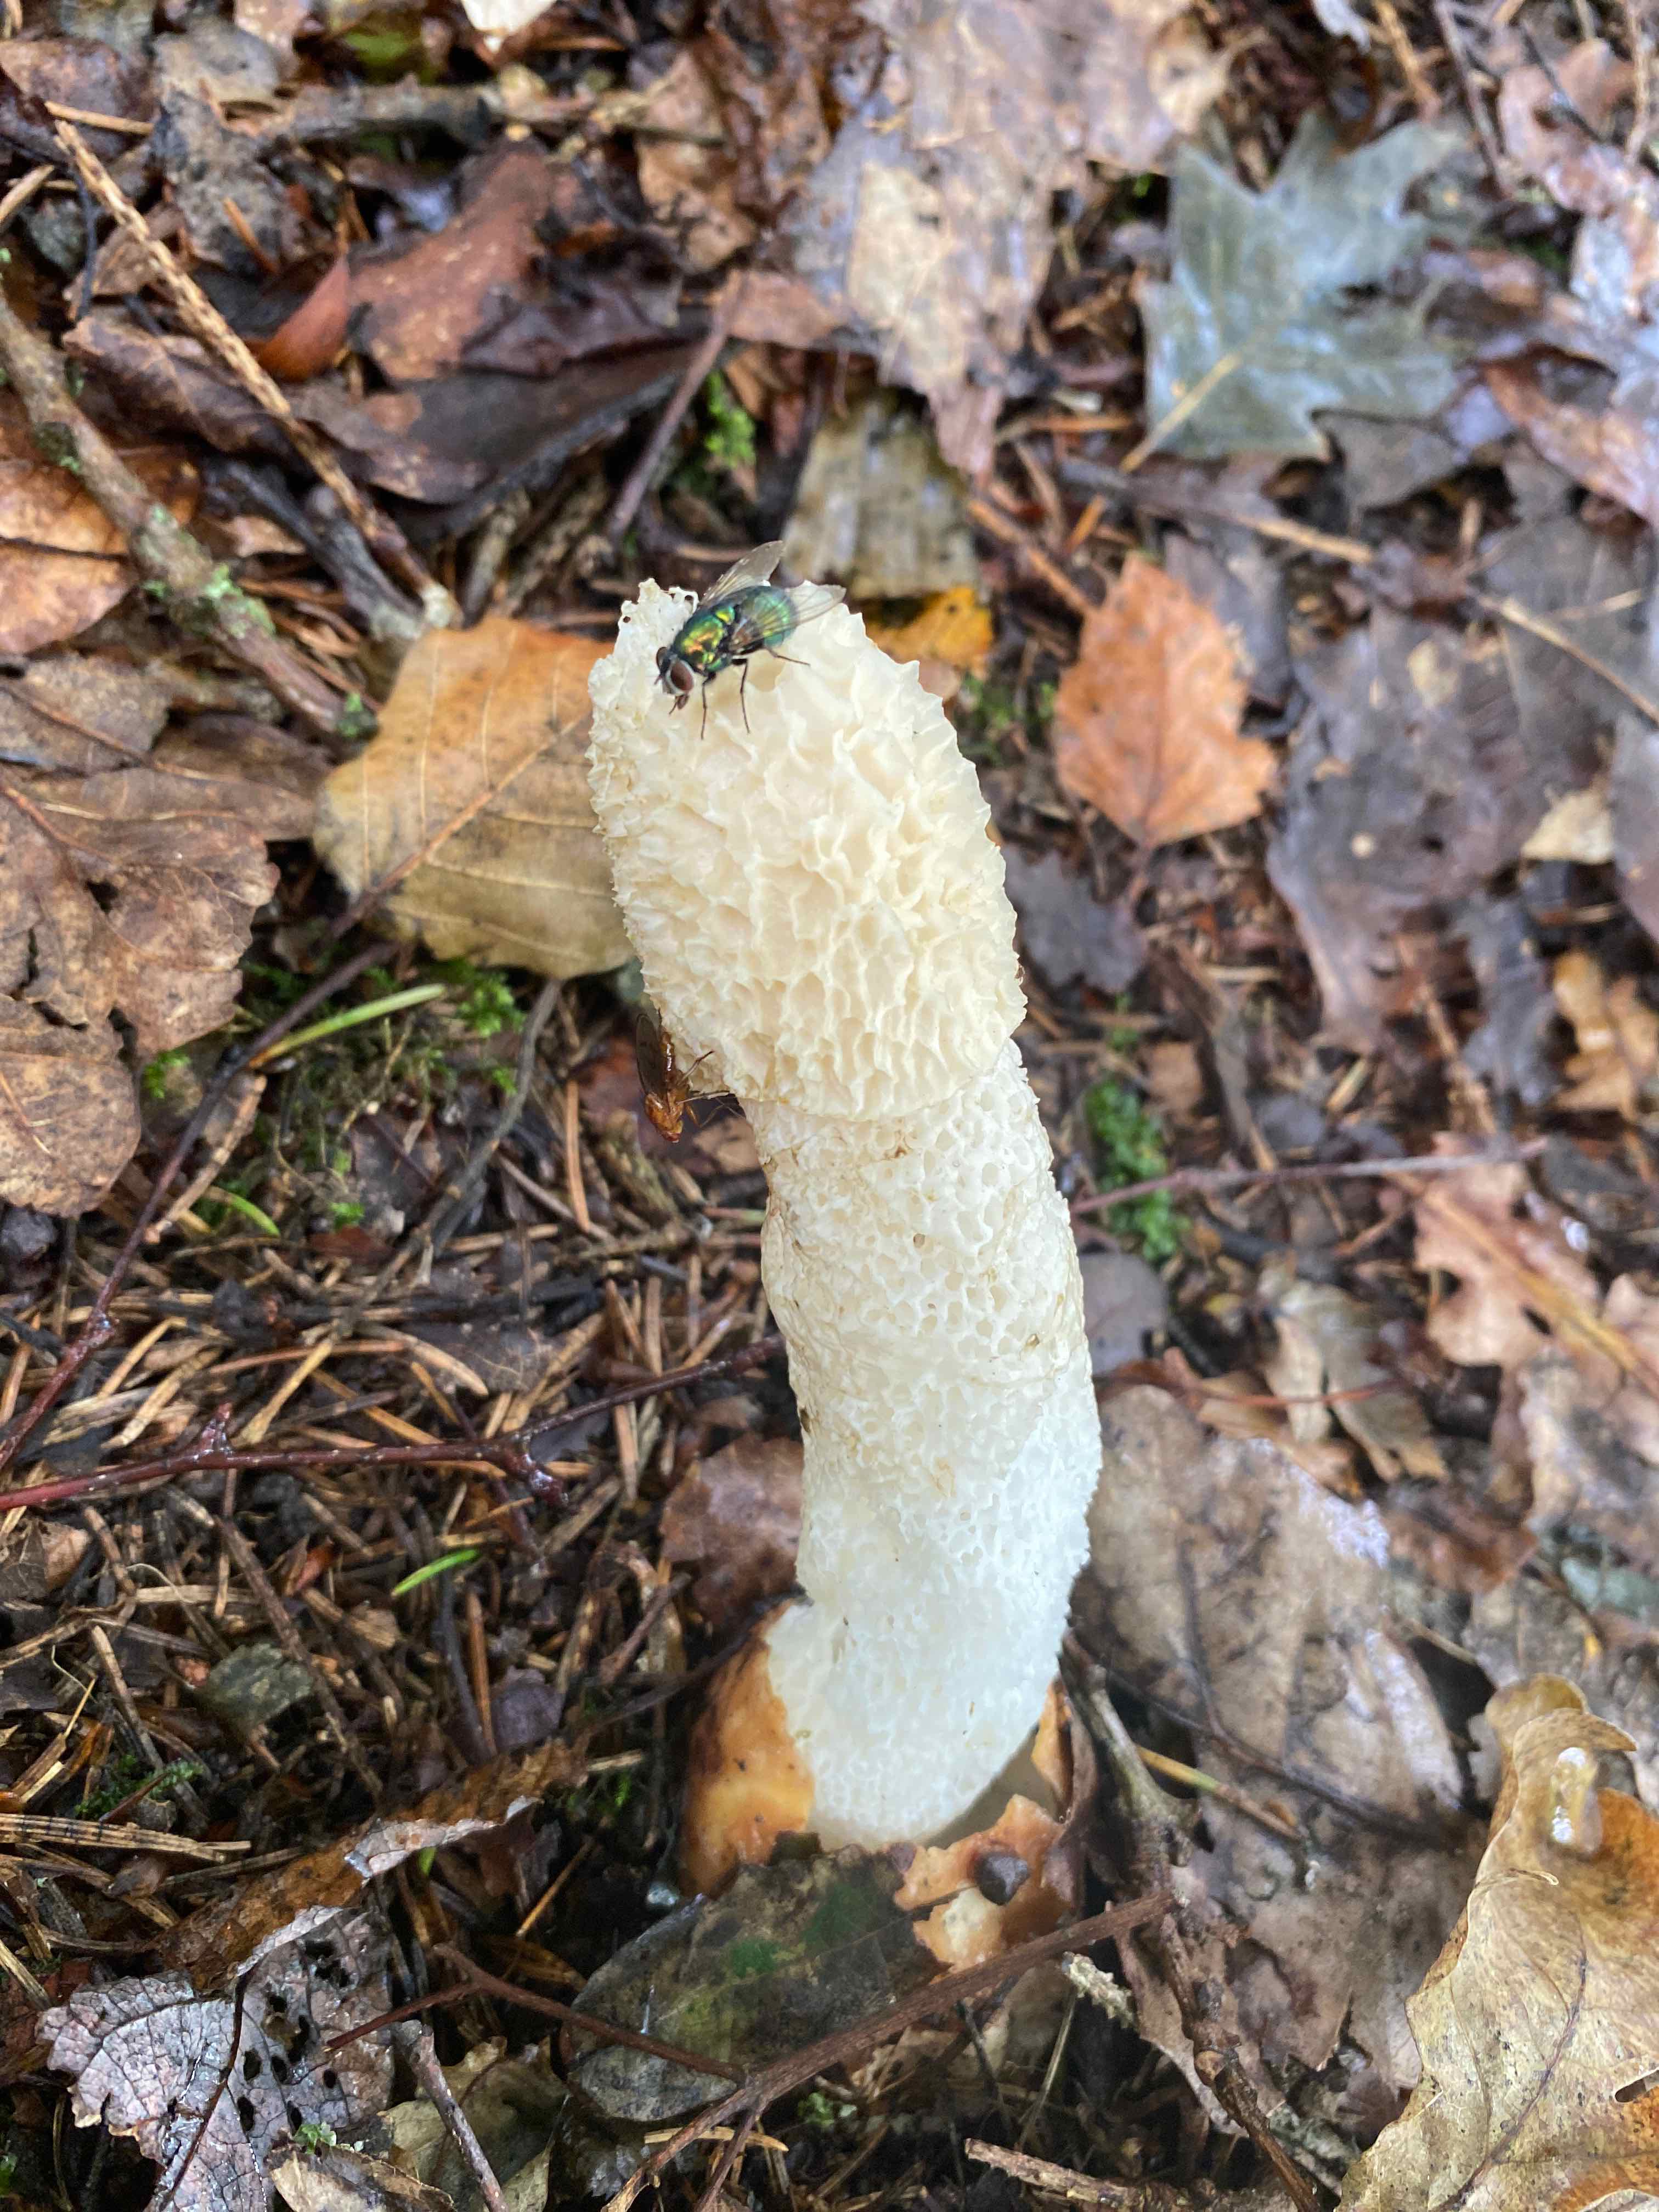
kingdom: Fungi
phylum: Basidiomycota
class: Agaricomycetes
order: Phallales
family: Phallaceae
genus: Phallus
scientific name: Phallus impudicus
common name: almindelig stinksvamp
